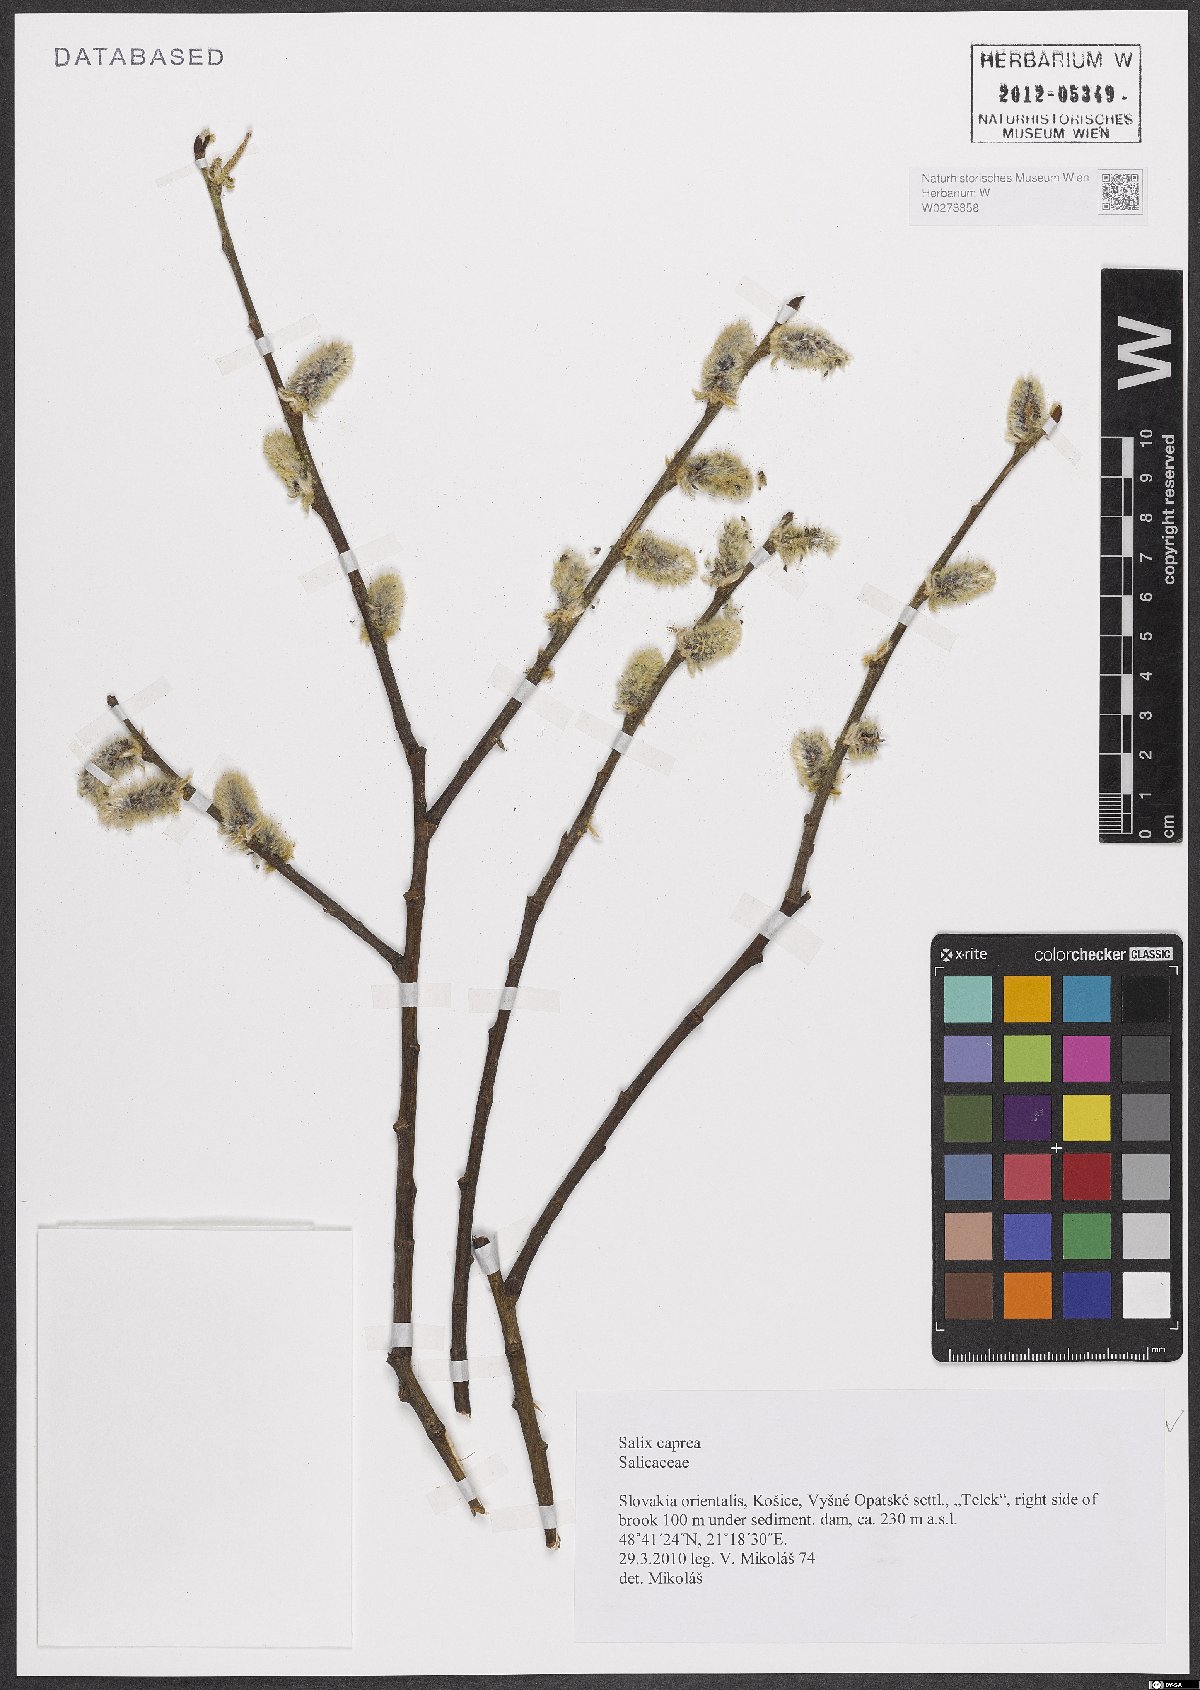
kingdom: Plantae
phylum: Tracheophyta
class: Magnoliopsida
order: Malpighiales
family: Salicaceae
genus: Salix
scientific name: Salix caprea
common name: Goat willow
